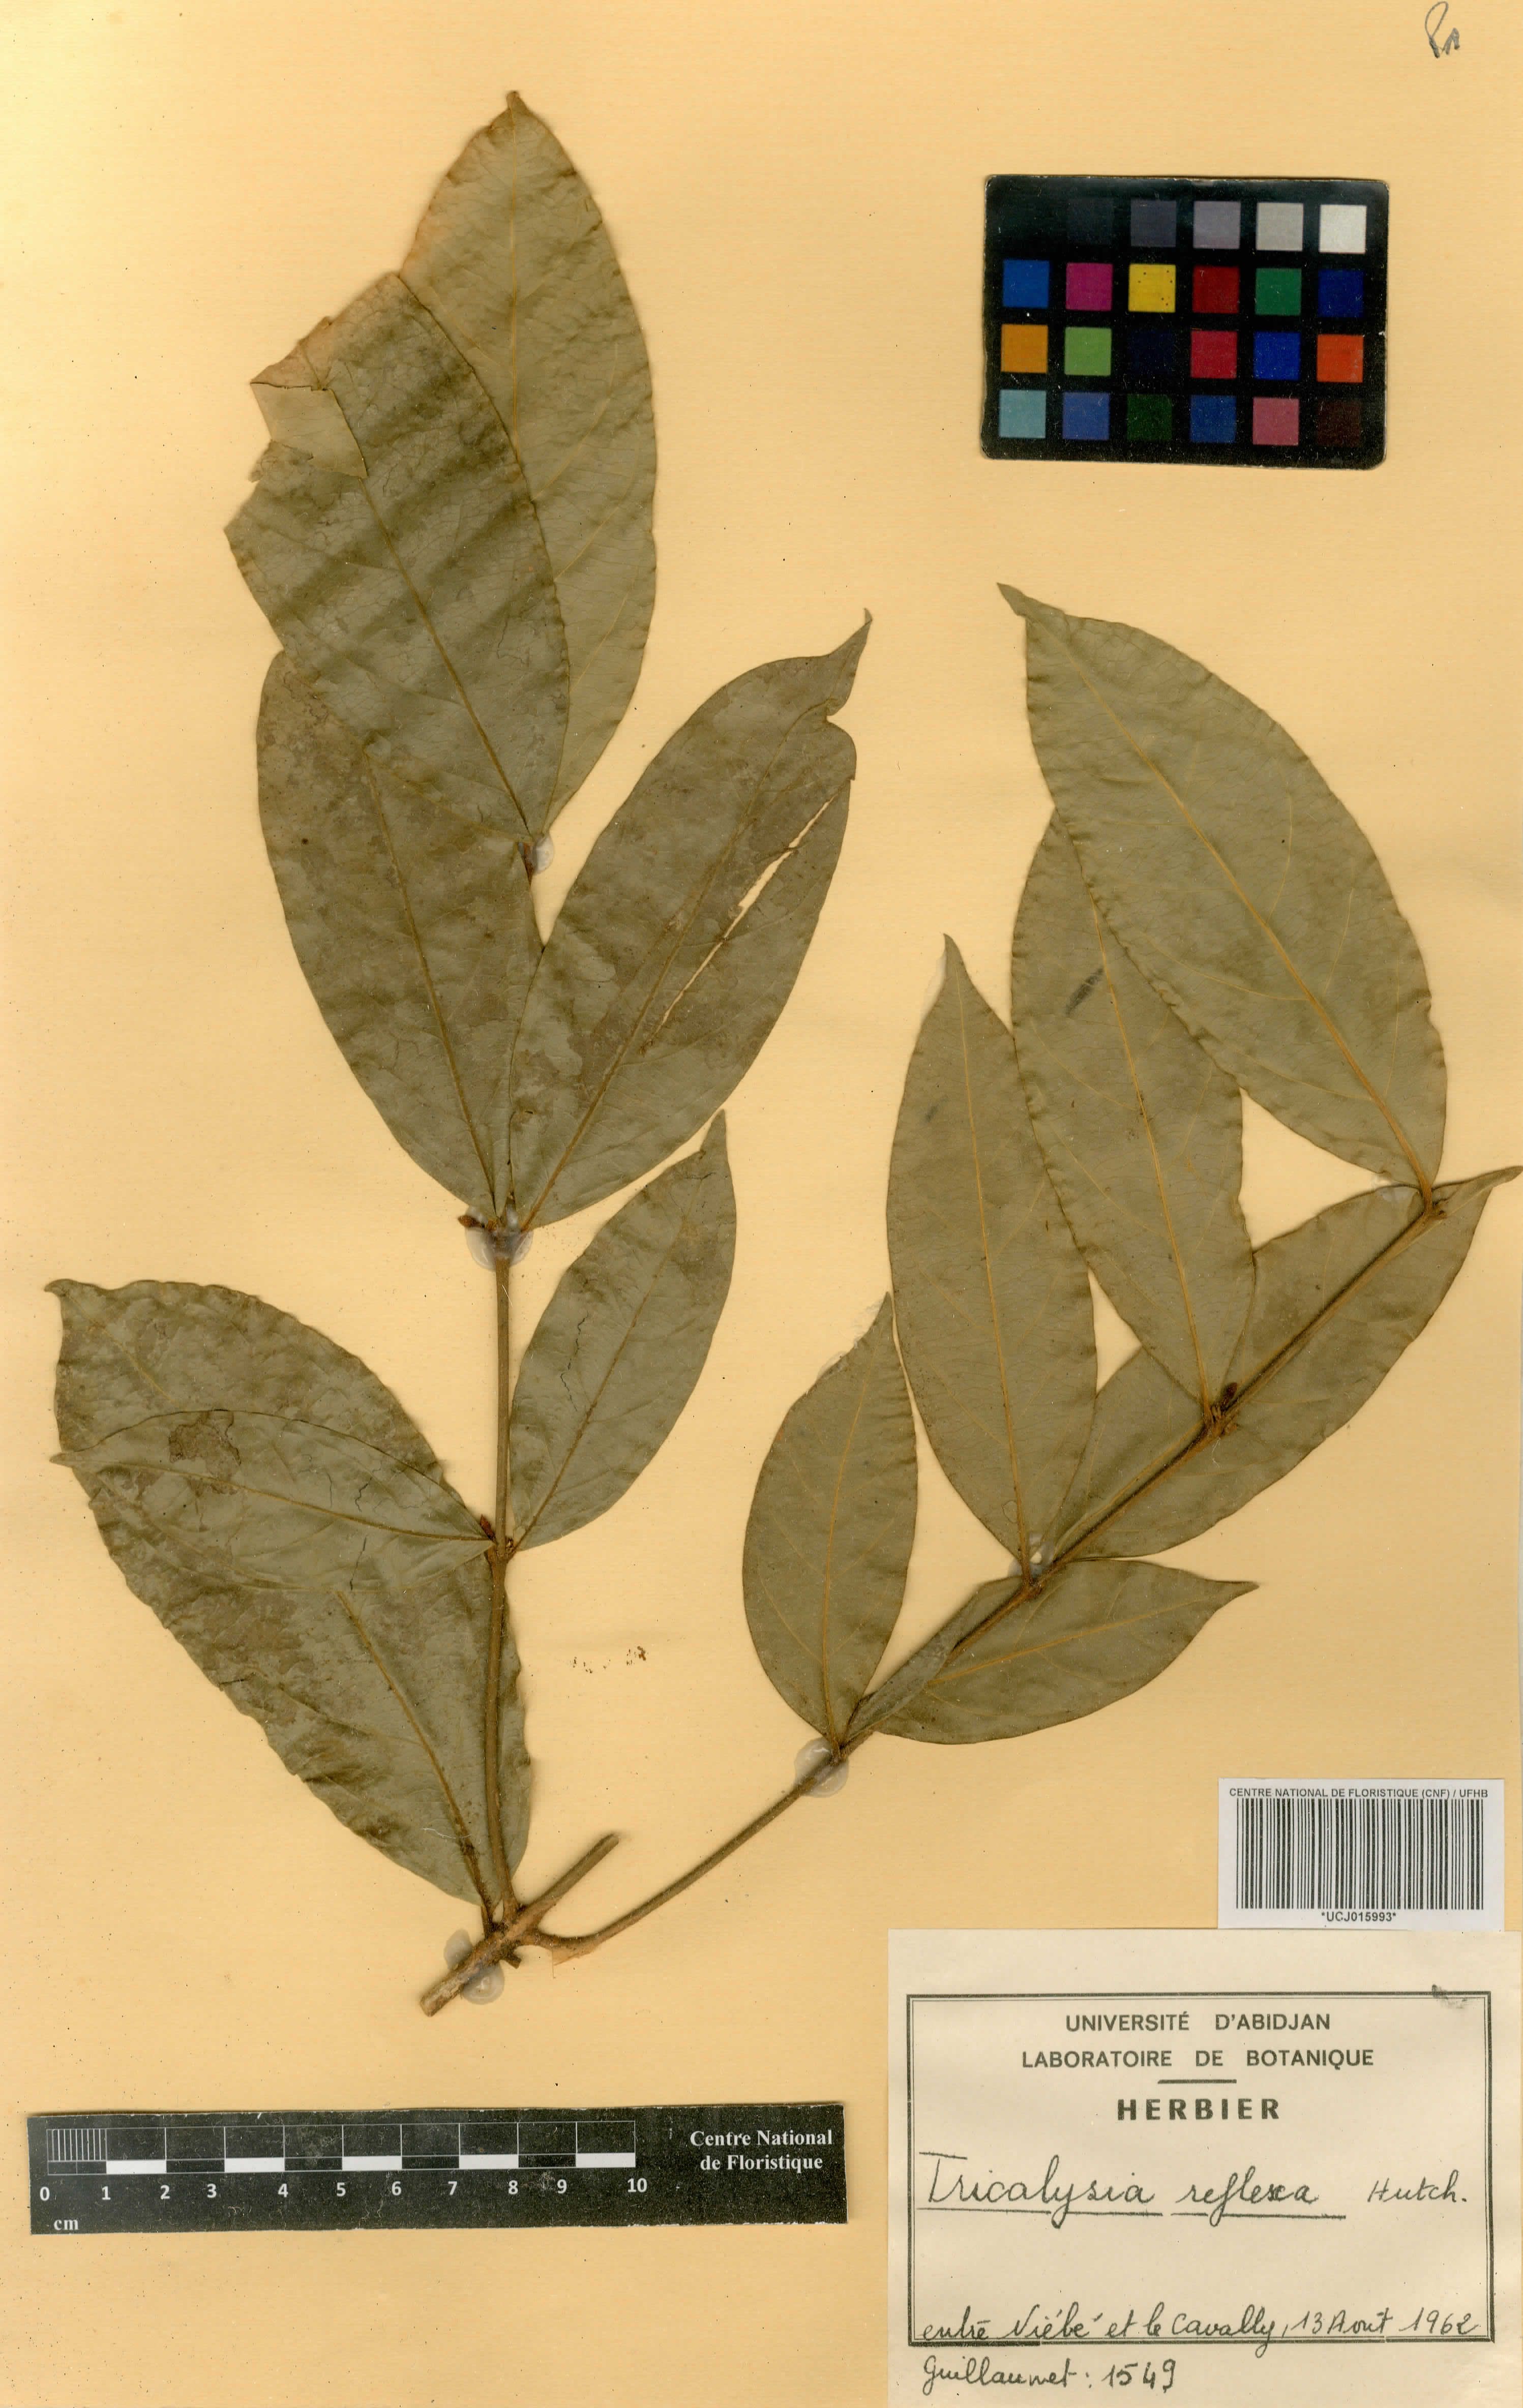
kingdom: Plantae
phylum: Tracheophyta
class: Magnoliopsida
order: Gentianales
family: Rubiaceae
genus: Empogona
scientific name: Empogona reflexa
